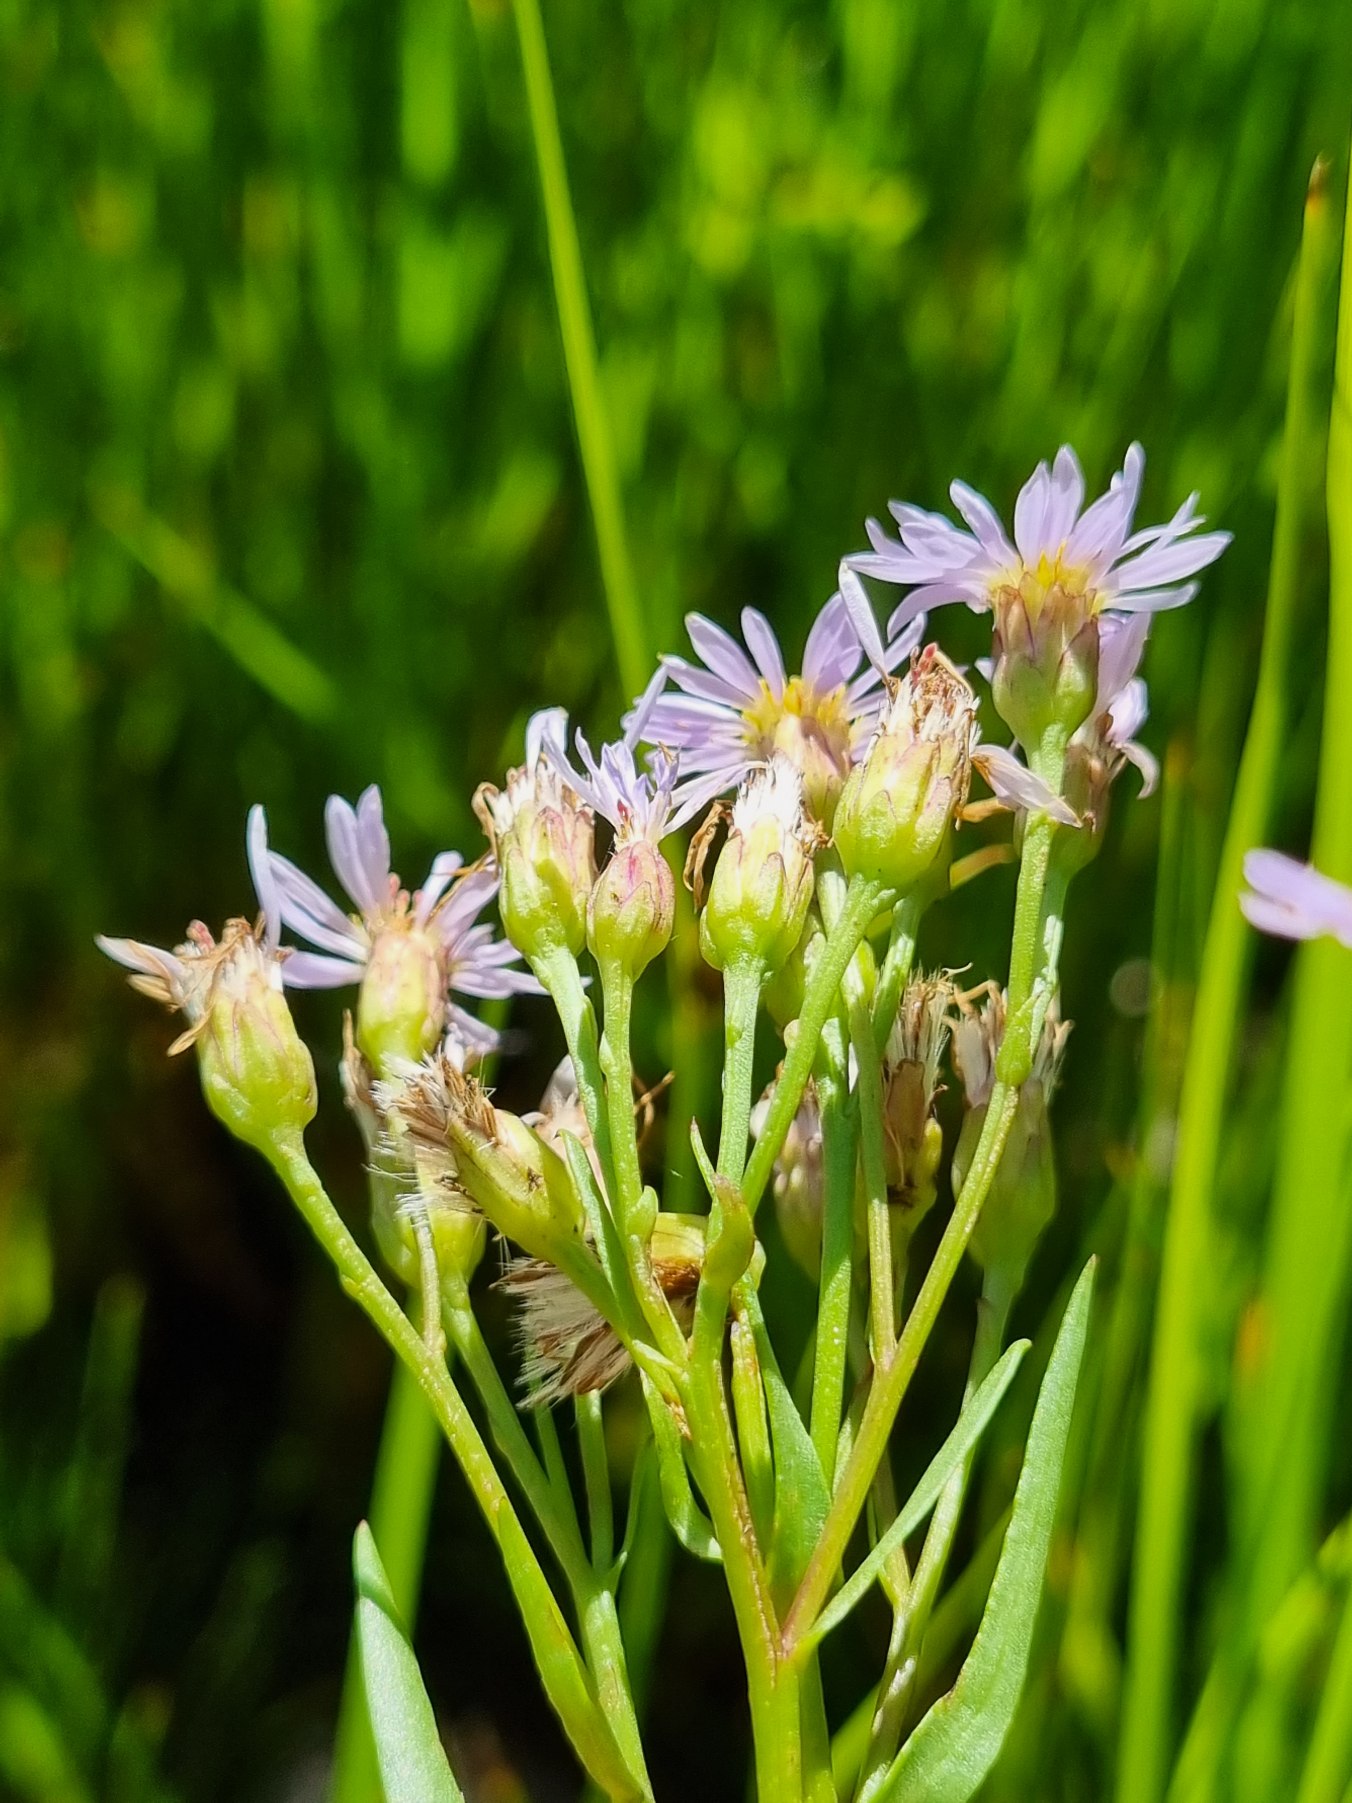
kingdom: Plantae
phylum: Tracheophyta
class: Magnoliopsida
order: Asterales
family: Asteraceae
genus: Tripolium
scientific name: Tripolium pannonicum
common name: Strandasters
